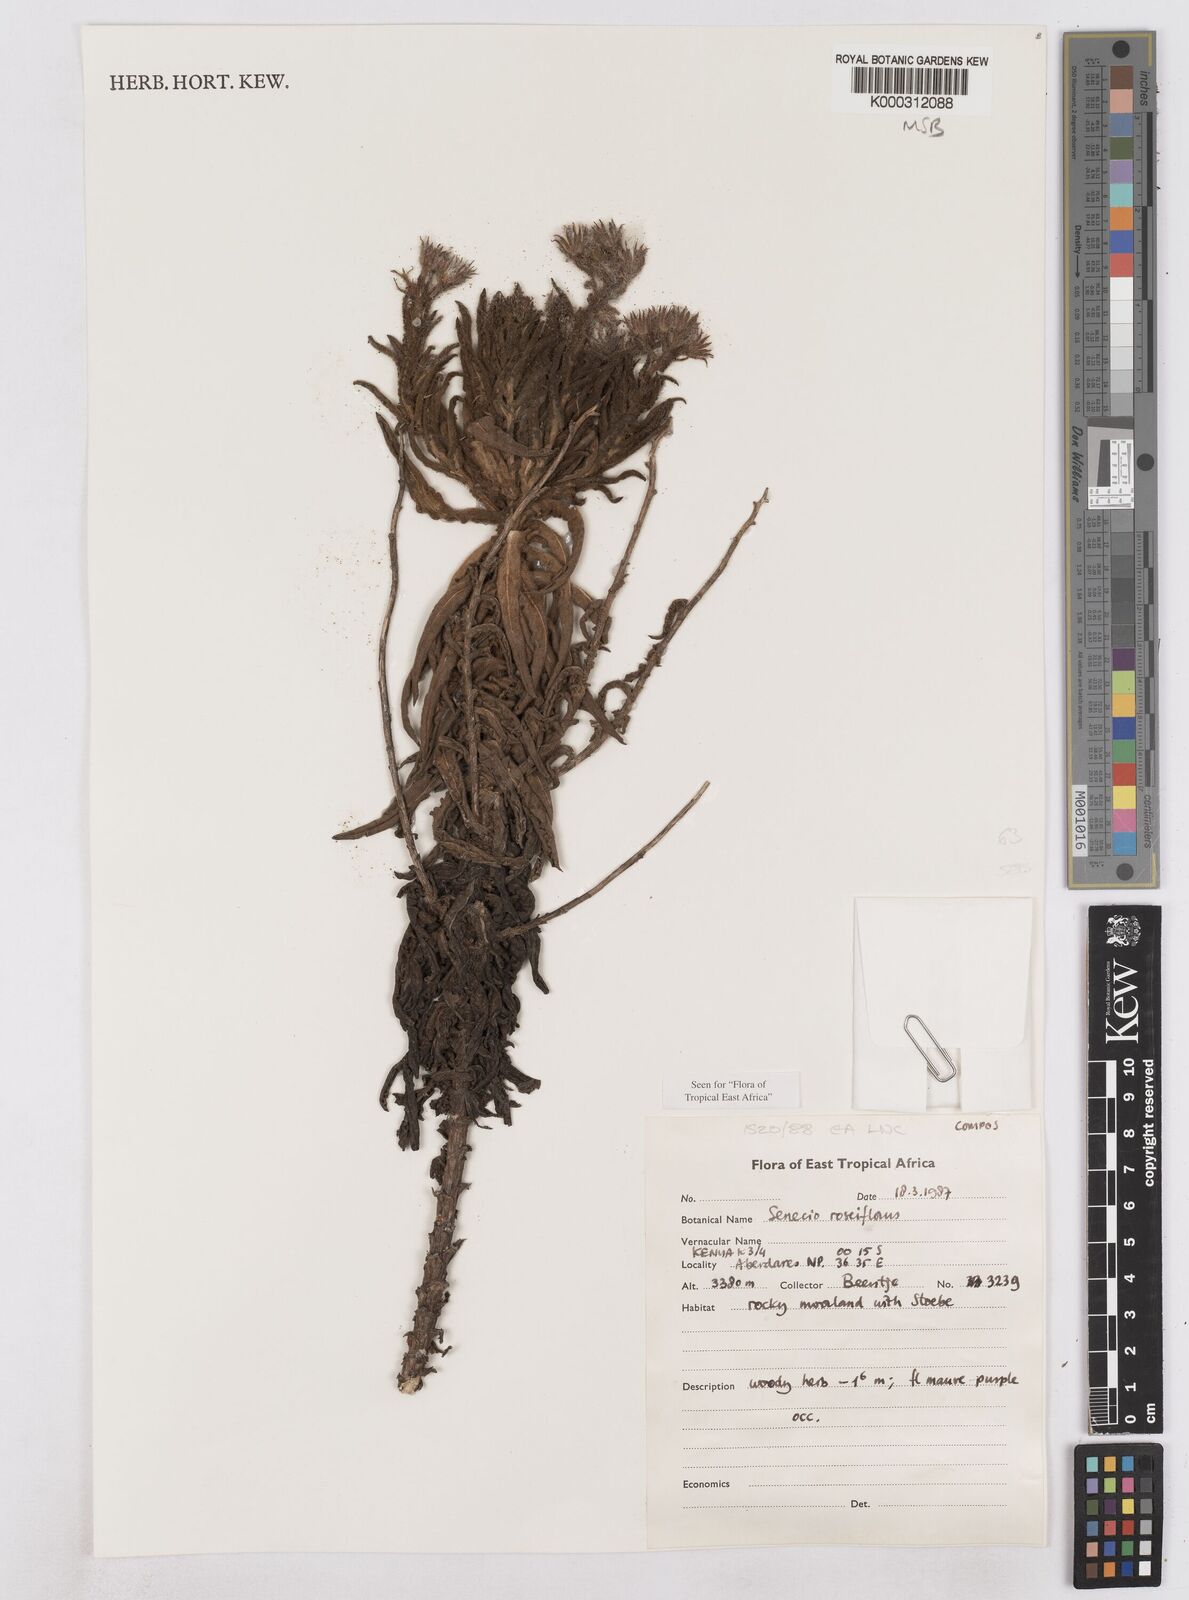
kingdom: Plantae
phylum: Tracheophyta
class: Magnoliopsida
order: Asterales
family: Asteraceae
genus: Senecio
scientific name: Senecio roseiflorus
